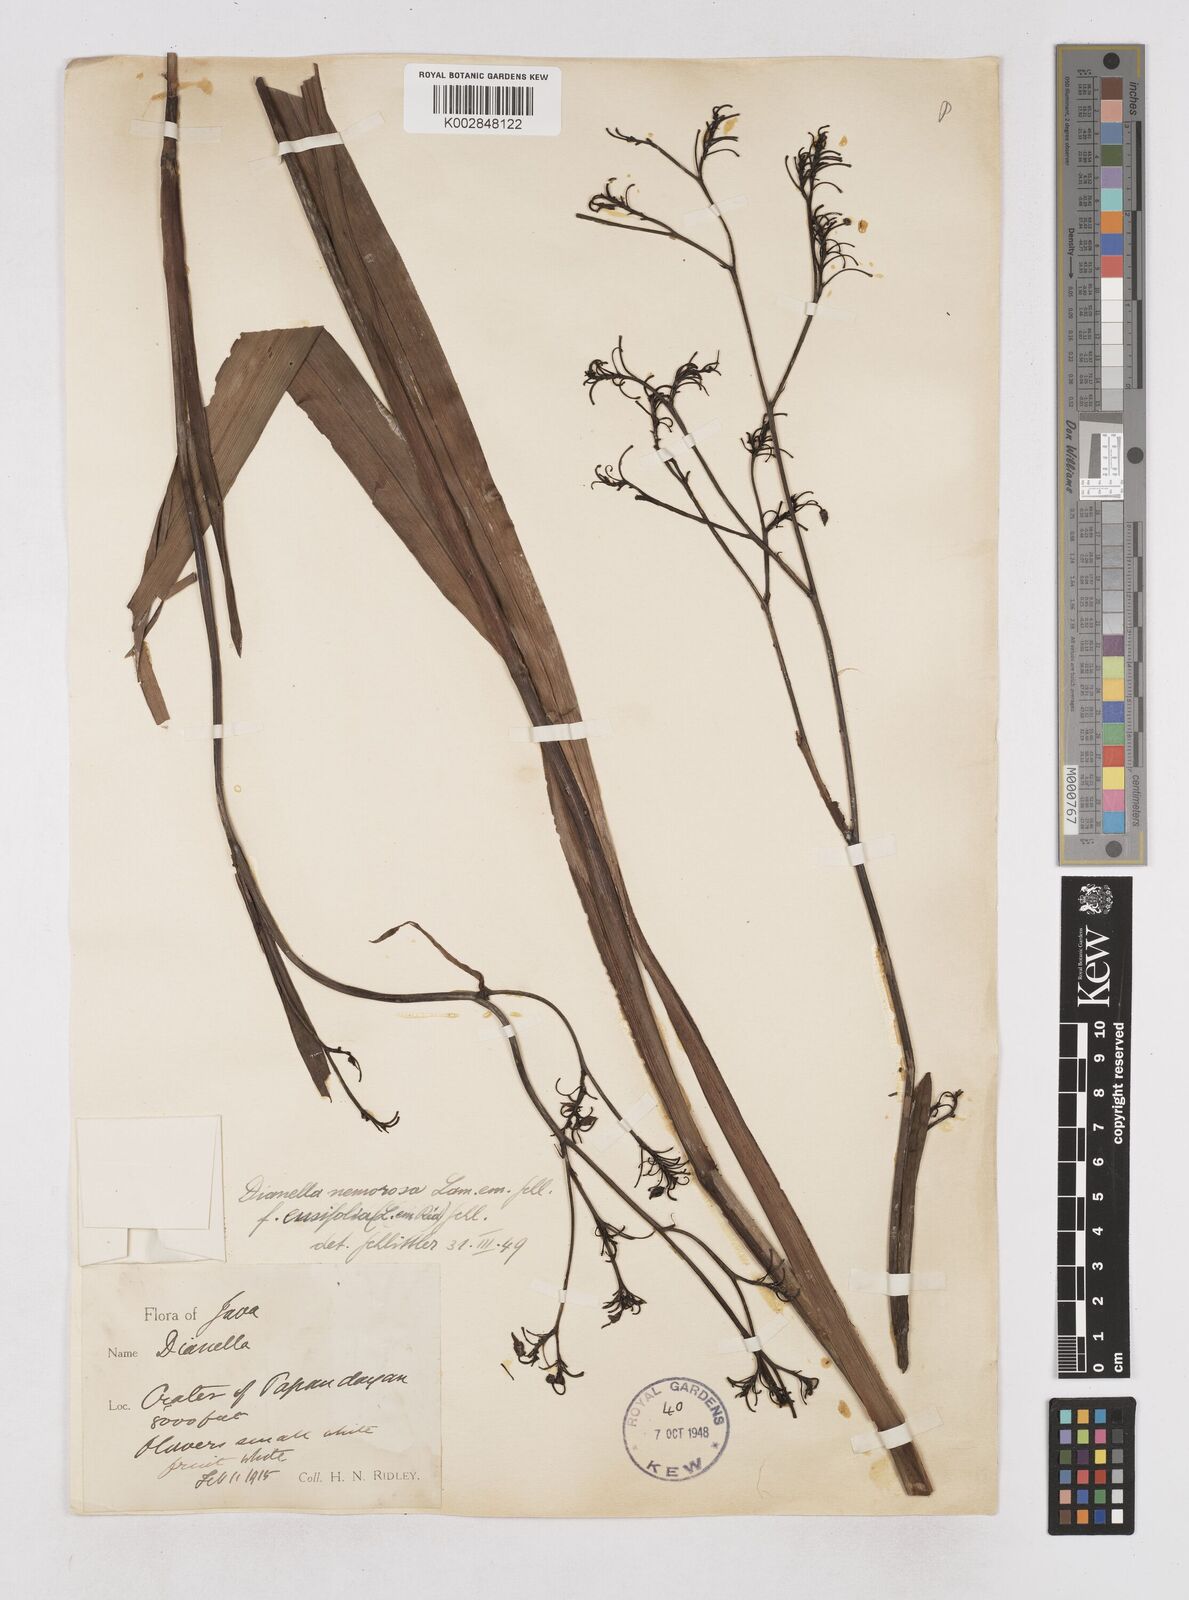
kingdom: Plantae
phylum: Tracheophyta
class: Liliopsida
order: Asparagales
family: Asphodelaceae
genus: Dianella
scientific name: Dianella ensifolia
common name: New zealand lilyplant
